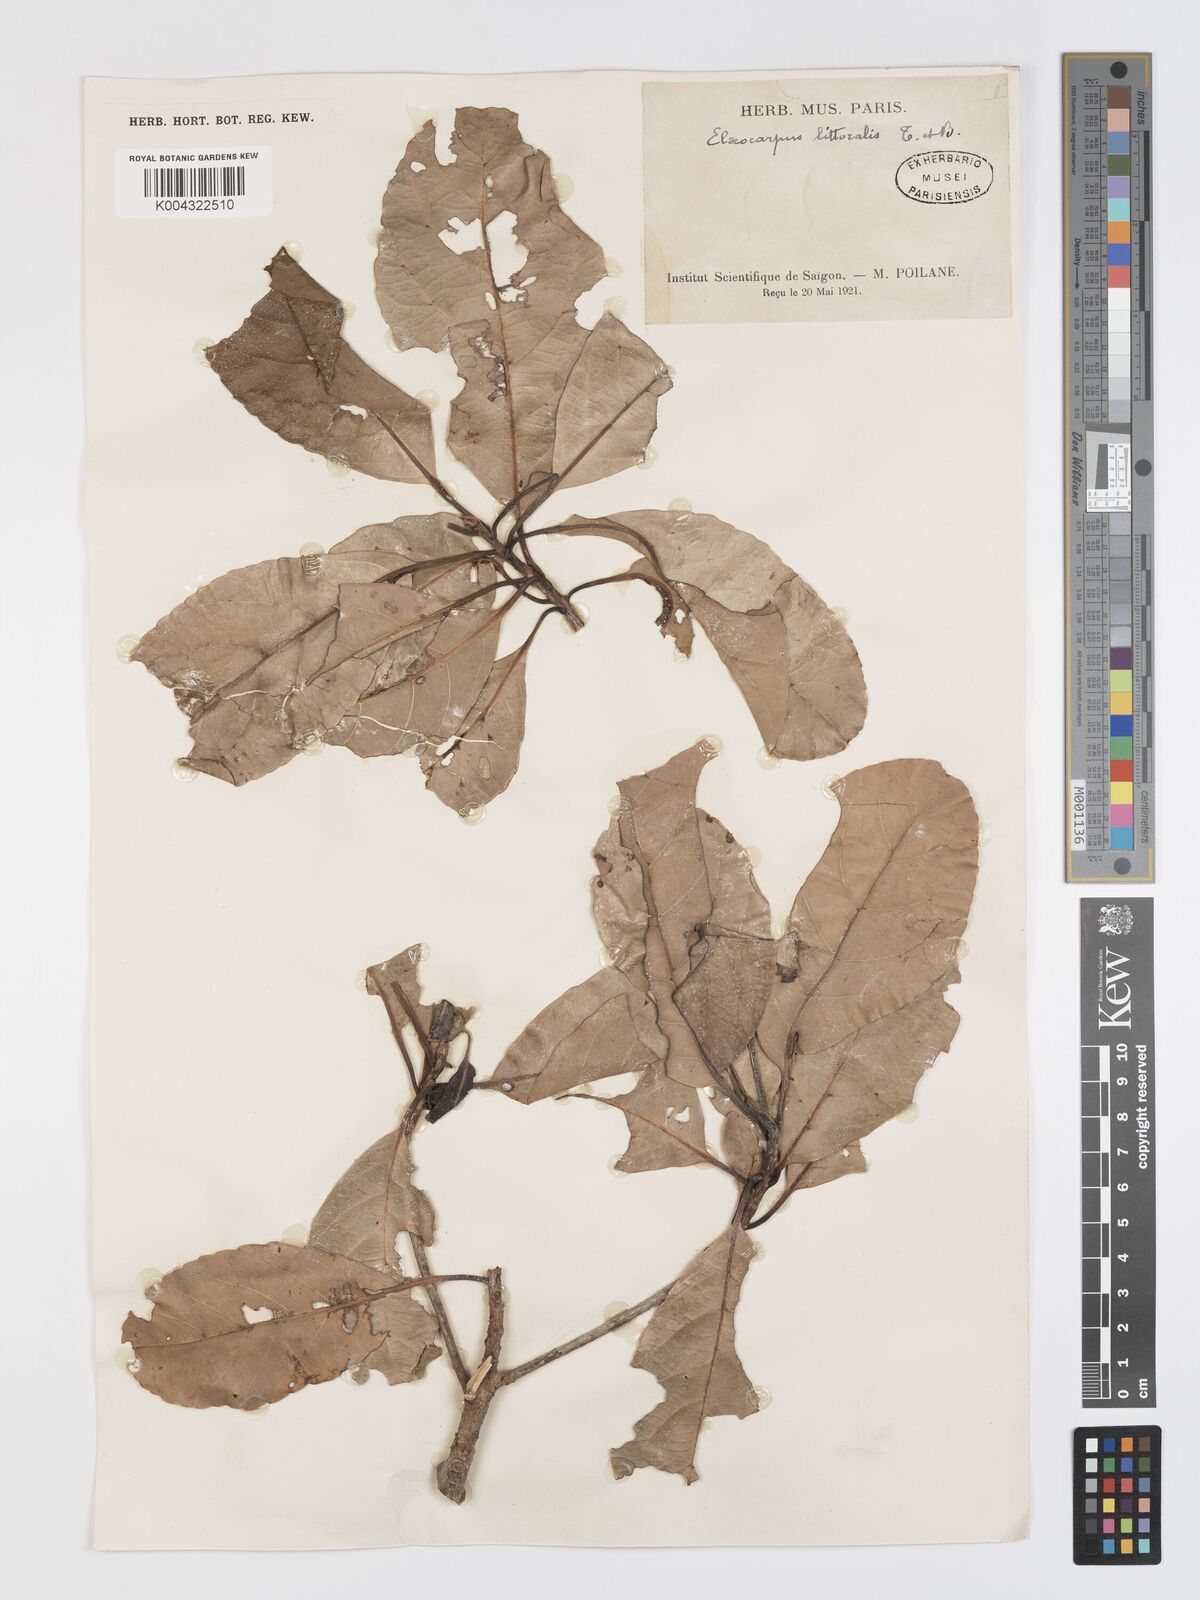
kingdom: Plantae
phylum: Tracheophyta
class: Magnoliopsida
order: Oxalidales
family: Elaeocarpaceae
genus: Elaeocarpus
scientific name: Elaeocarpus macrocerus
